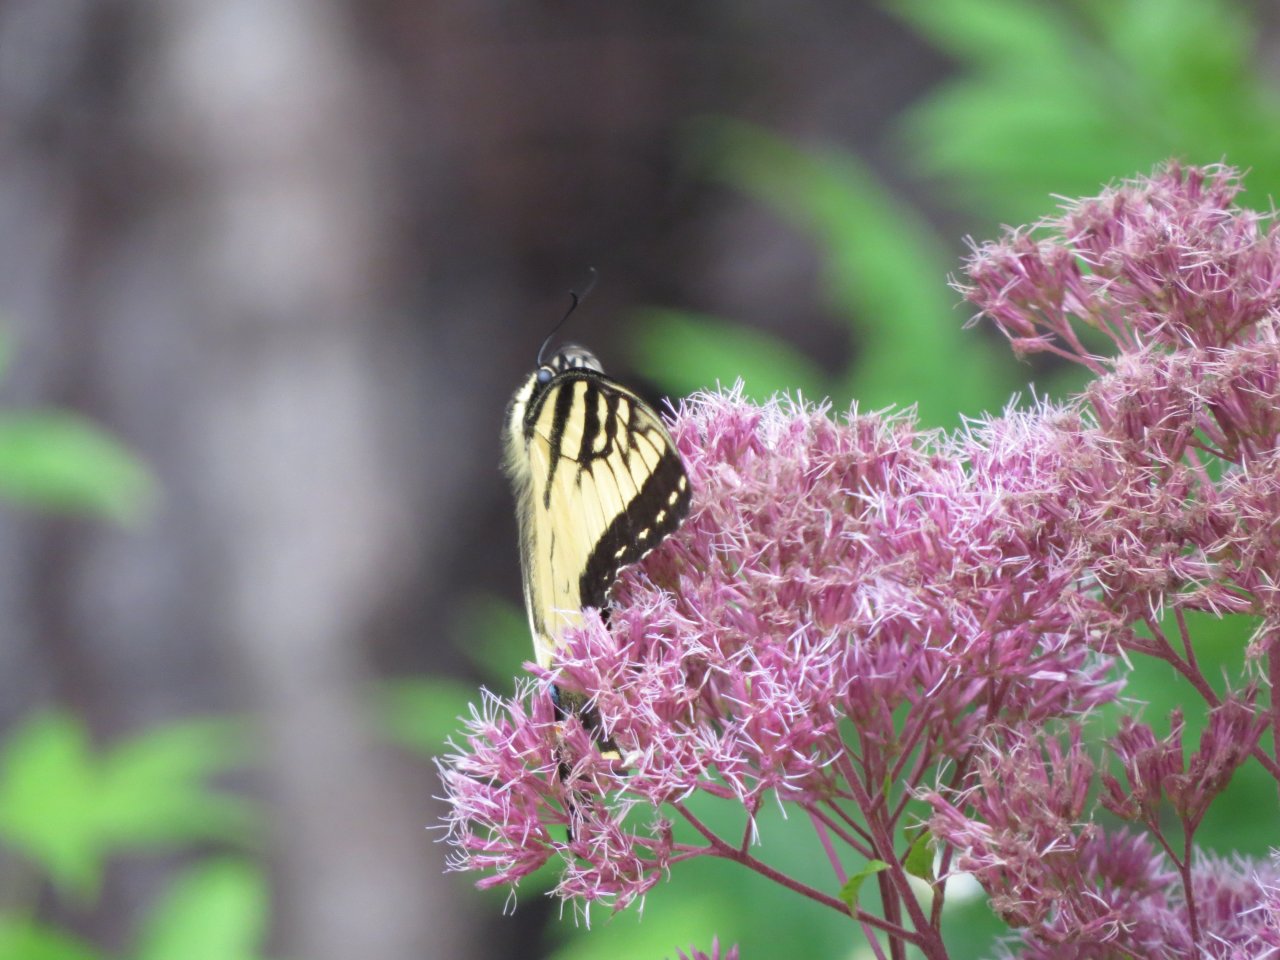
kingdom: Animalia
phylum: Arthropoda
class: Insecta
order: Lepidoptera
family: Papilionidae
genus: Papilio
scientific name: Papilio cresphontes
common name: Eastern Giant Swallowtail
